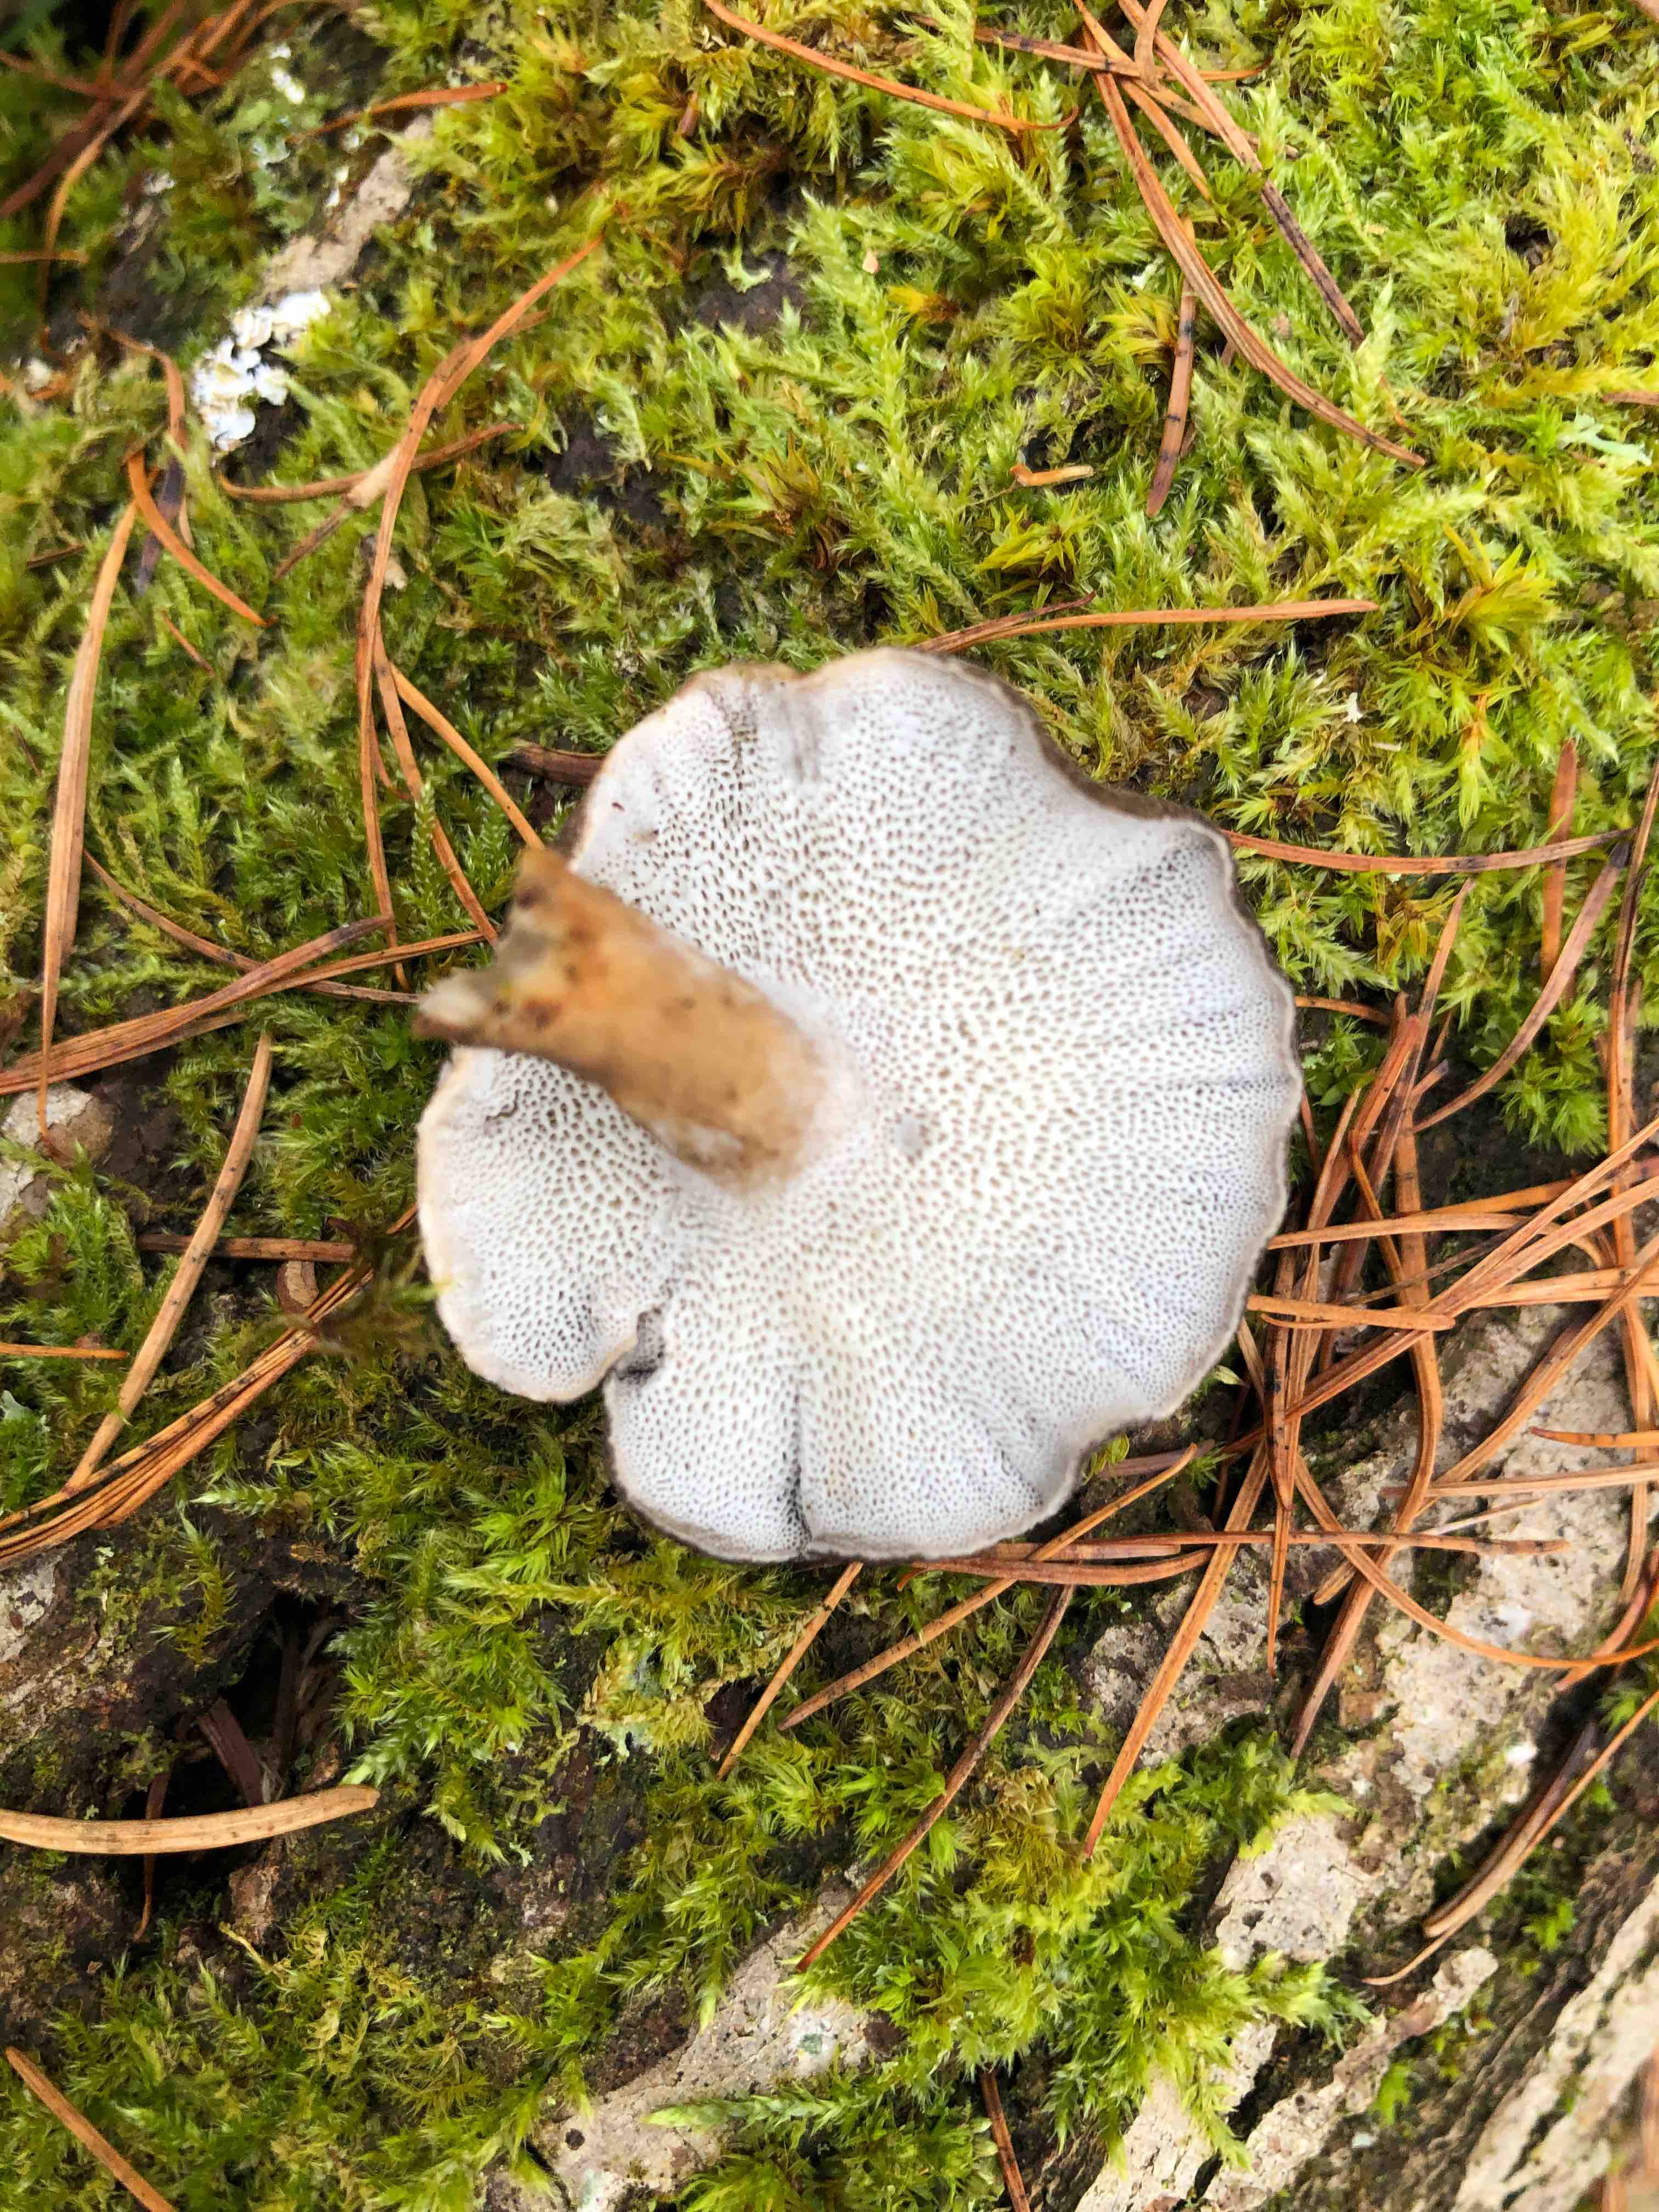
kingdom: Fungi
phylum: Basidiomycota
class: Agaricomycetes
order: Polyporales
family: Polyporaceae
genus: Lentinus
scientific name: Lentinus brumalis
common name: vinter-stilkporesvamp
